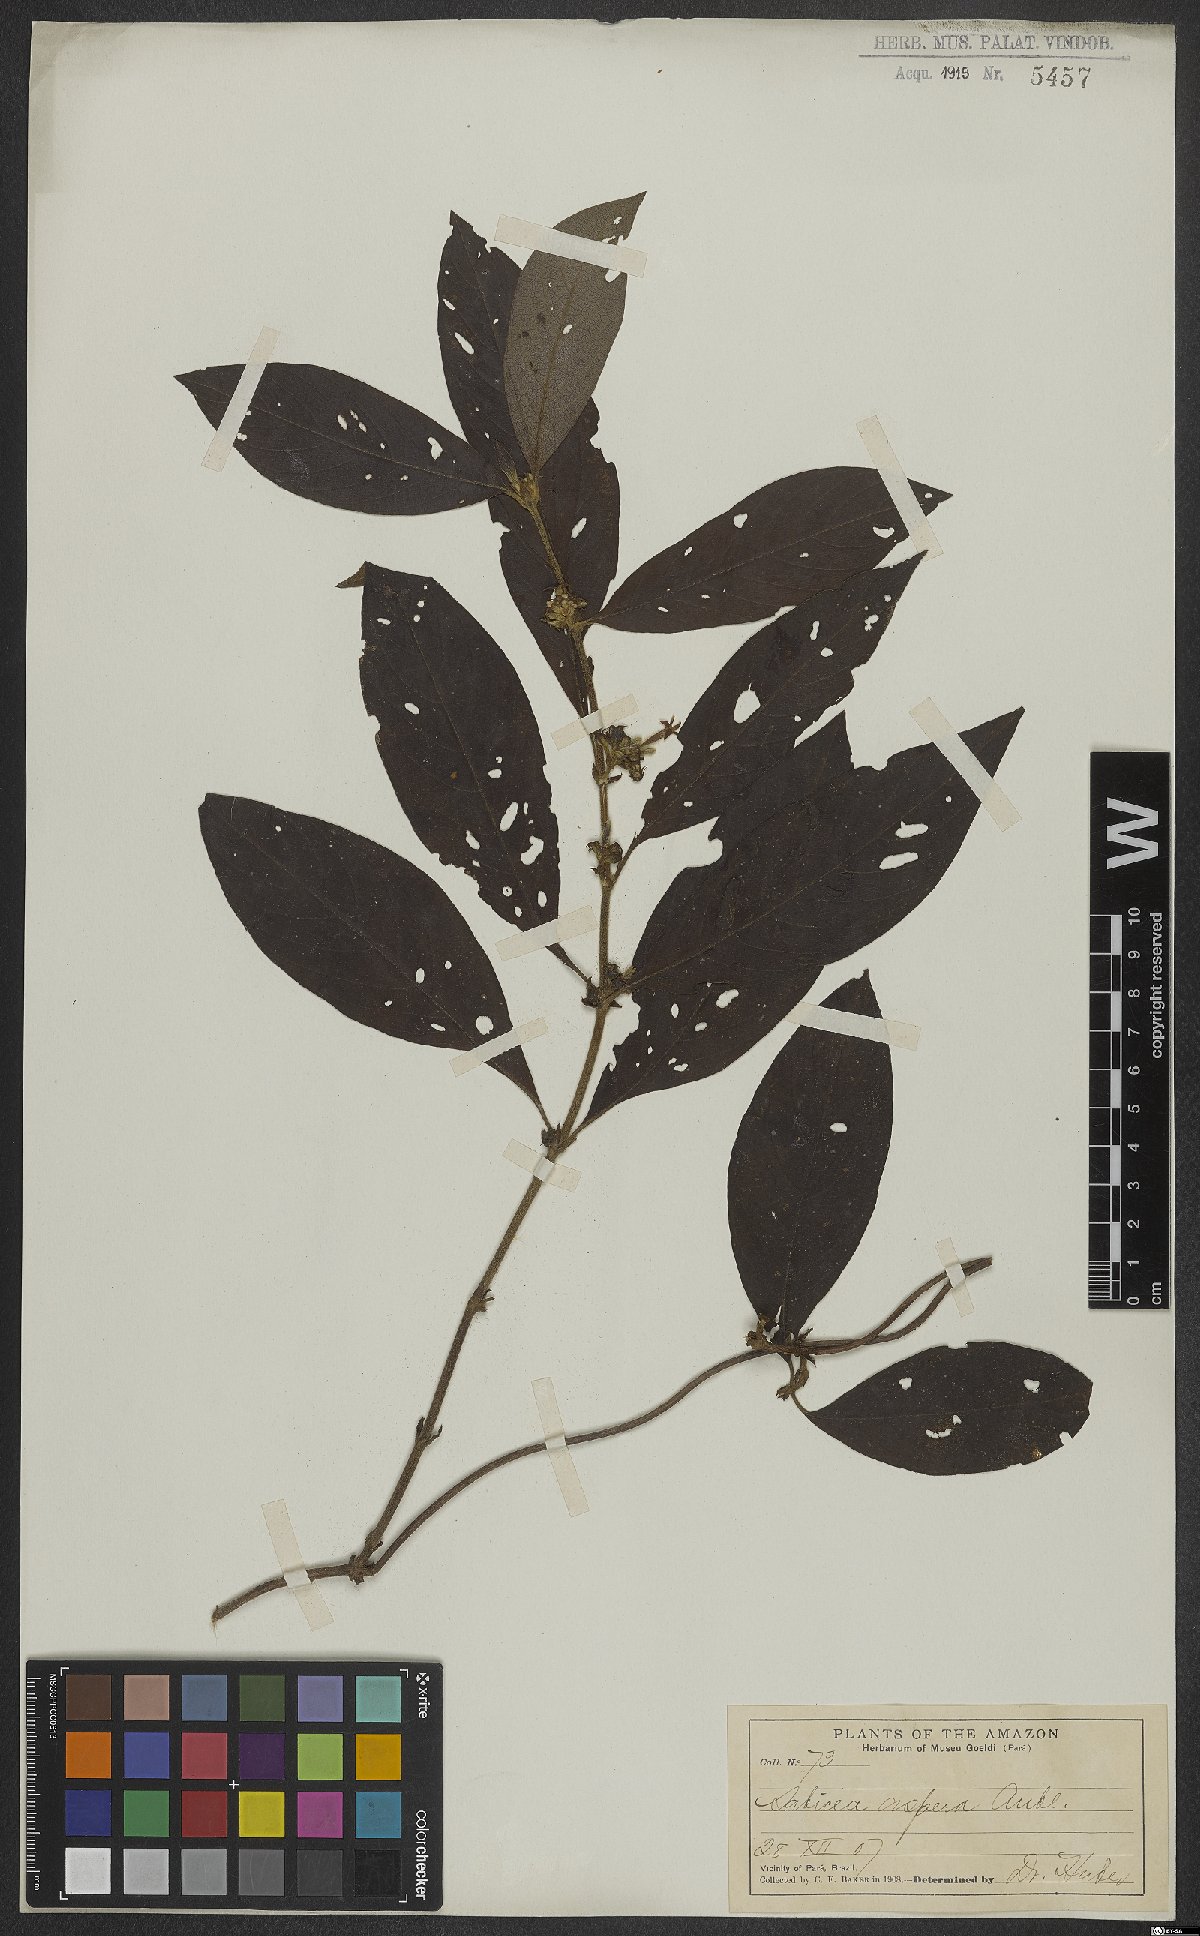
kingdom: Plantae
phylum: Tracheophyta
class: Magnoliopsida
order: Gentianales
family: Rubiaceae
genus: Sabicea
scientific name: Sabicea aspera
